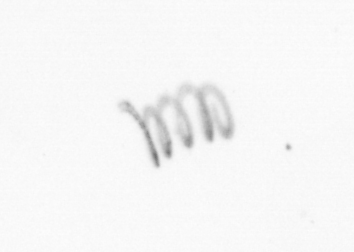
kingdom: Chromista
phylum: Ochrophyta
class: Bacillariophyceae
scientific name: Bacillariophyceae
